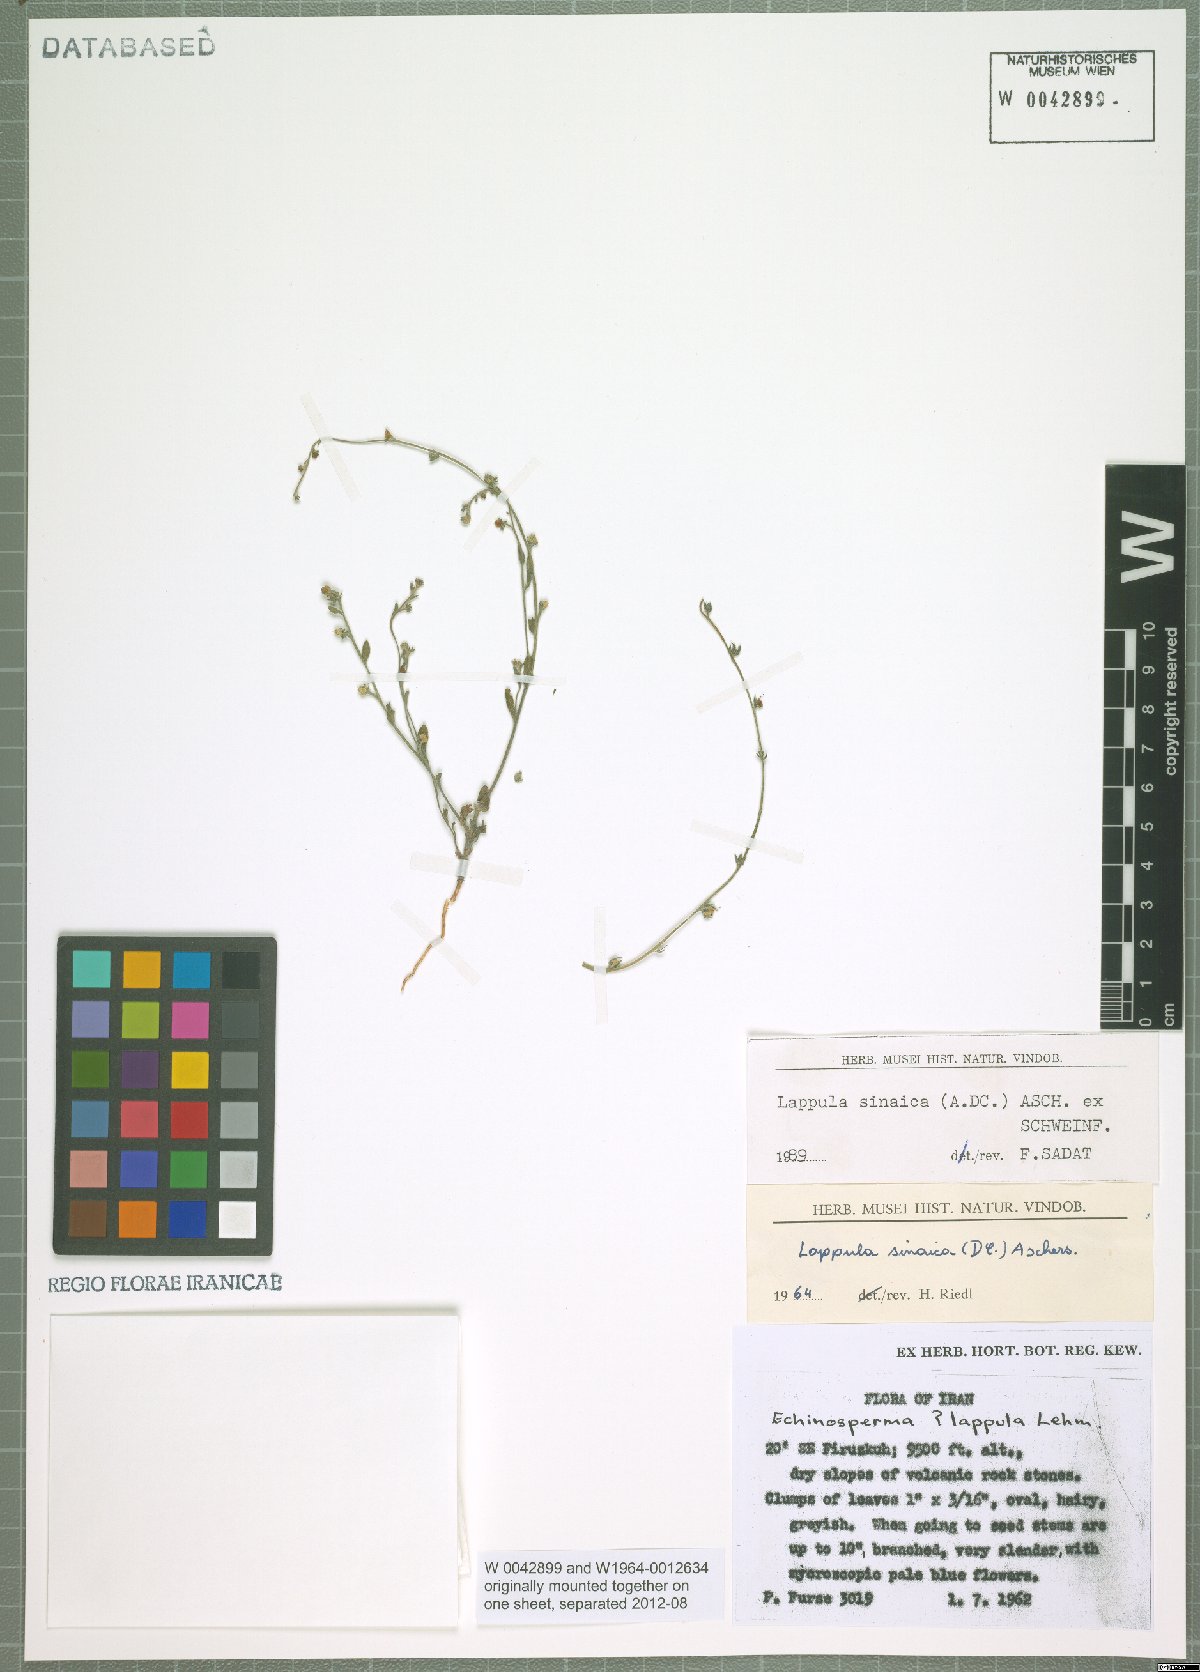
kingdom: Plantae
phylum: Tracheophyta
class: Magnoliopsida
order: Boraginales
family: Boraginaceae
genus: Pseudolappula
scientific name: Pseudolappula sinaica
